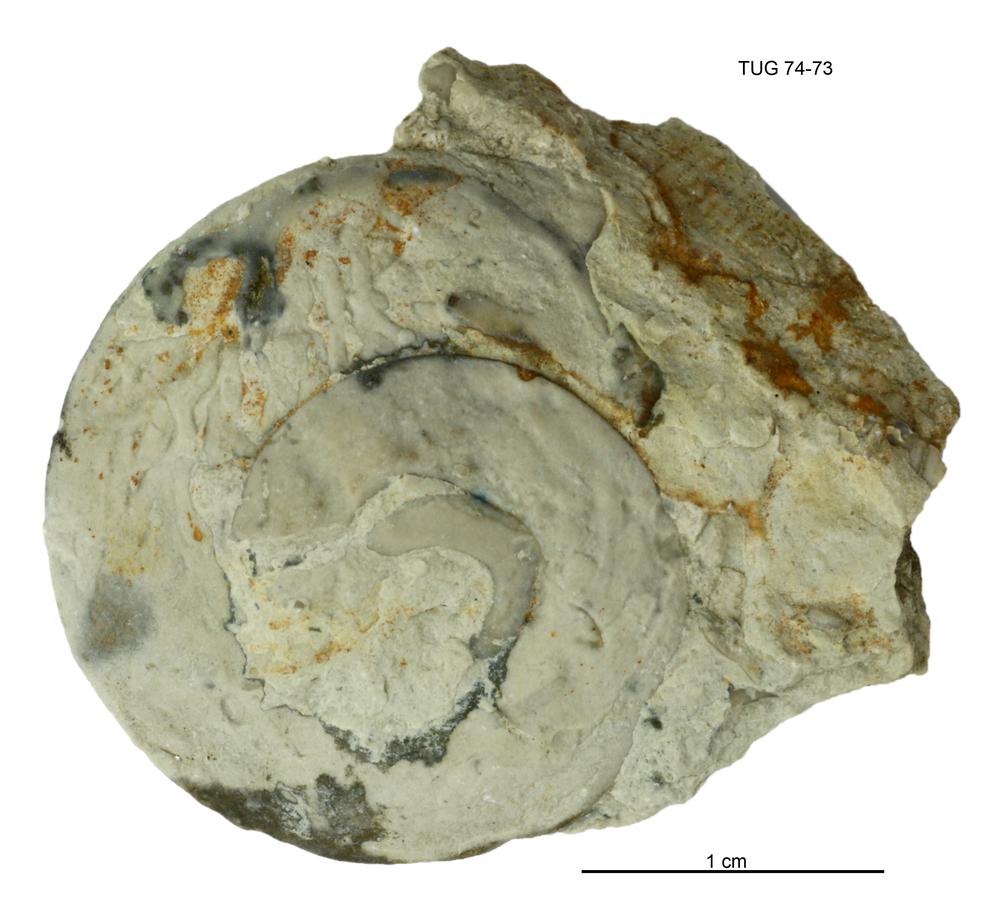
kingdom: Animalia
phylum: Mollusca
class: Gastropoda
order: Pleurotomariida
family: Eotomariidae
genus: Liospira
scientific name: Liospira Raphistoma wesenbergense
